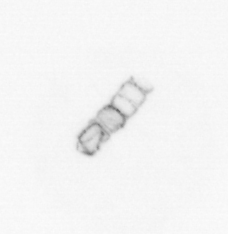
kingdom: Chromista
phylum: Ochrophyta
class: Bacillariophyceae
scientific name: Bacillariophyceae
